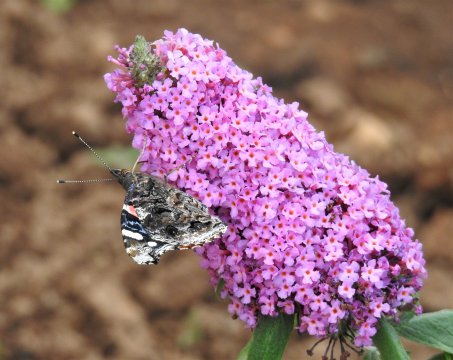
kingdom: Animalia
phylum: Arthropoda
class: Insecta
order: Lepidoptera
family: Nymphalidae
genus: Vanessa
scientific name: Vanessa atalanta
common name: Red Admiral
